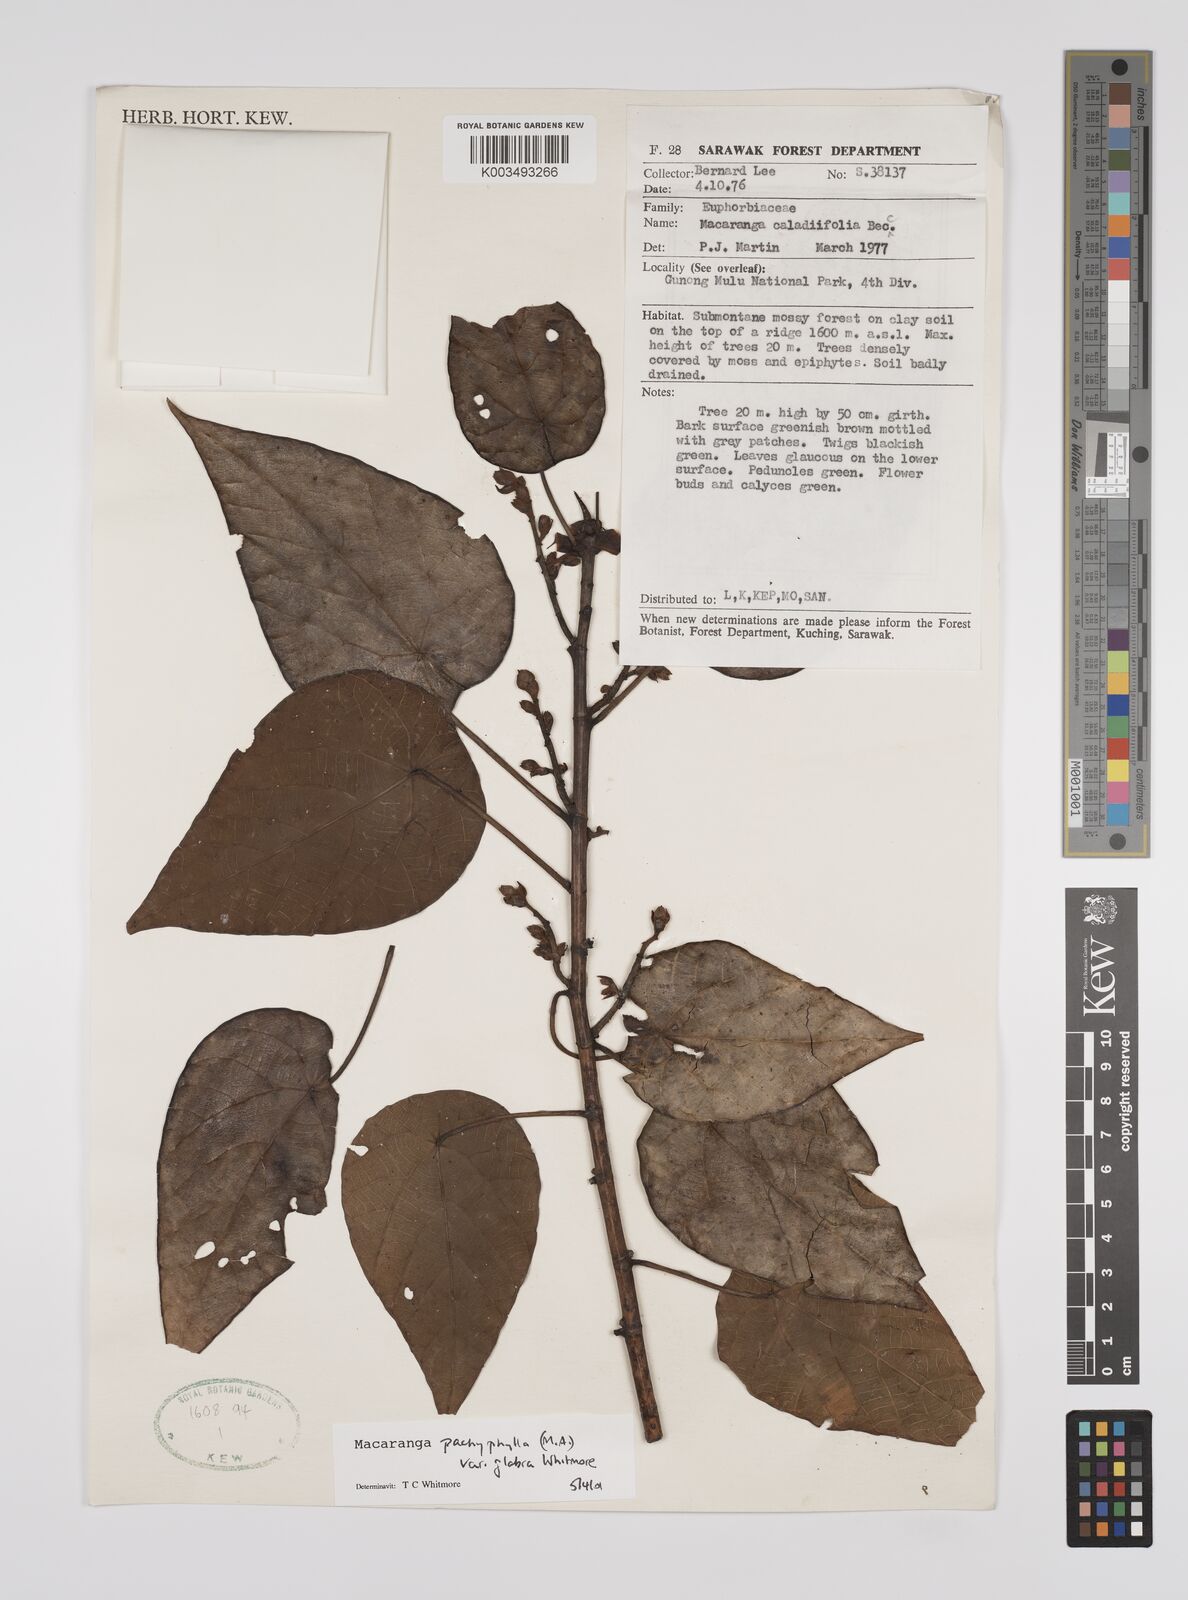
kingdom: Plantae
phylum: Tracheophyta
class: Magnoliopsida
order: Malpighiales
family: Euphorbiaceae
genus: Macaranga
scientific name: Macaranga pachyphylla
